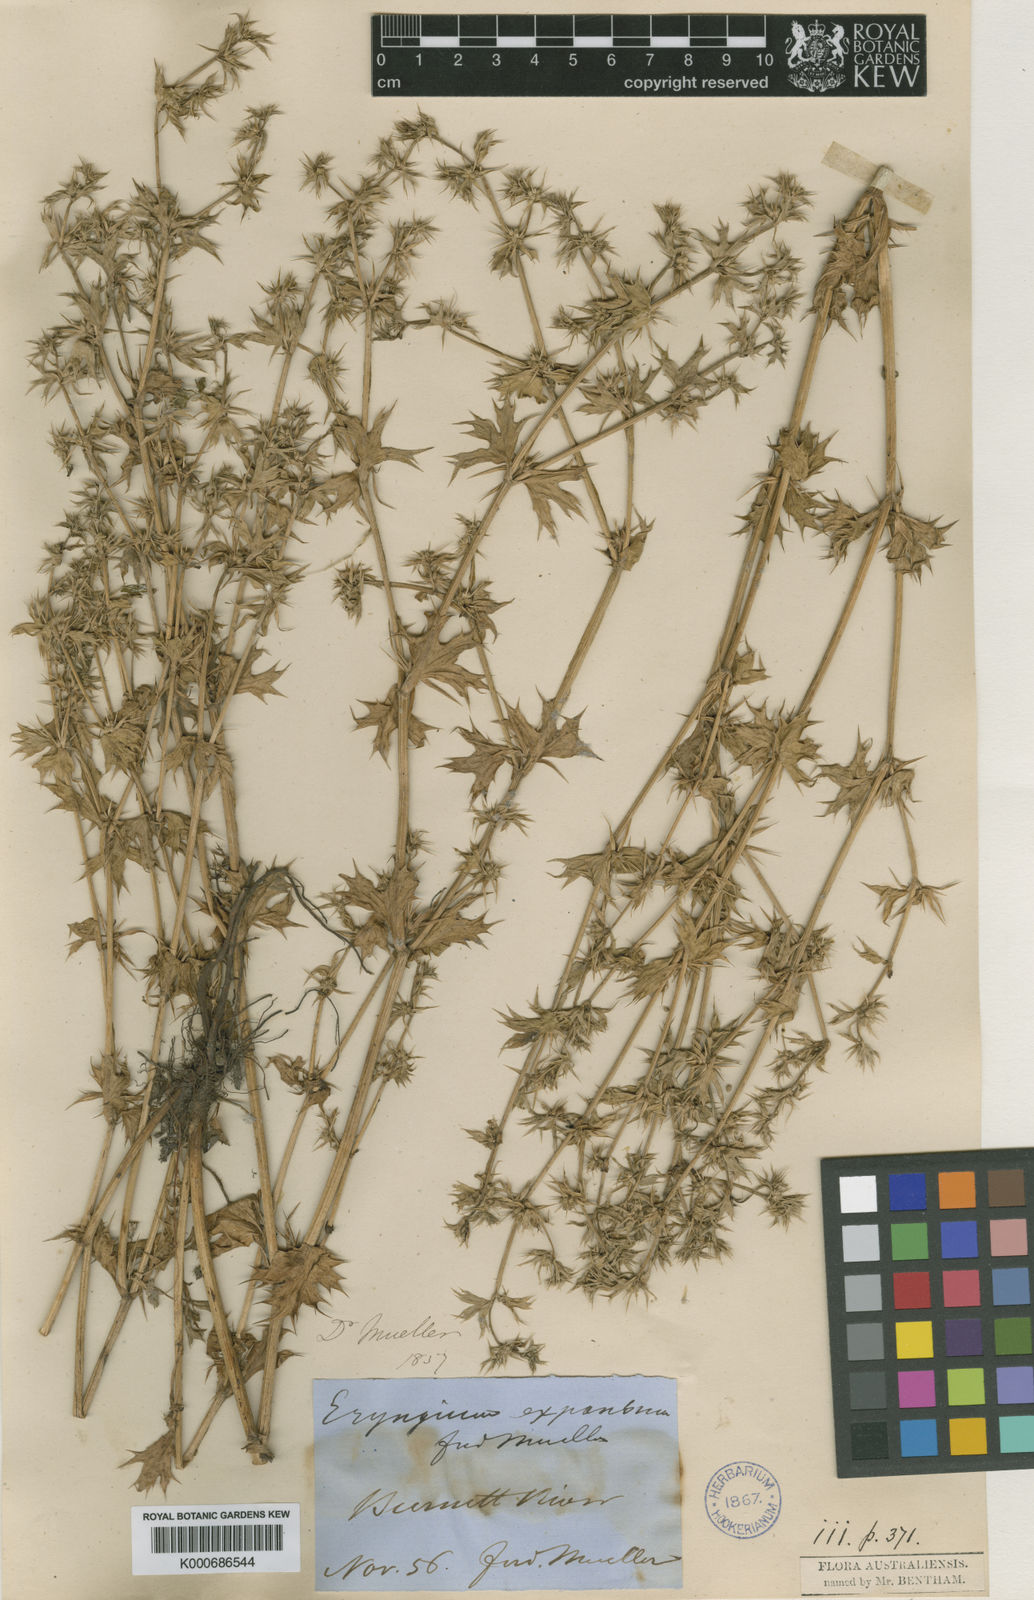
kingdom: Plantae
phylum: Tracheophyta
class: Magnoliopsida
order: Apiales
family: Apiaceae
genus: Eryngium
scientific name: Eryngium expansum
